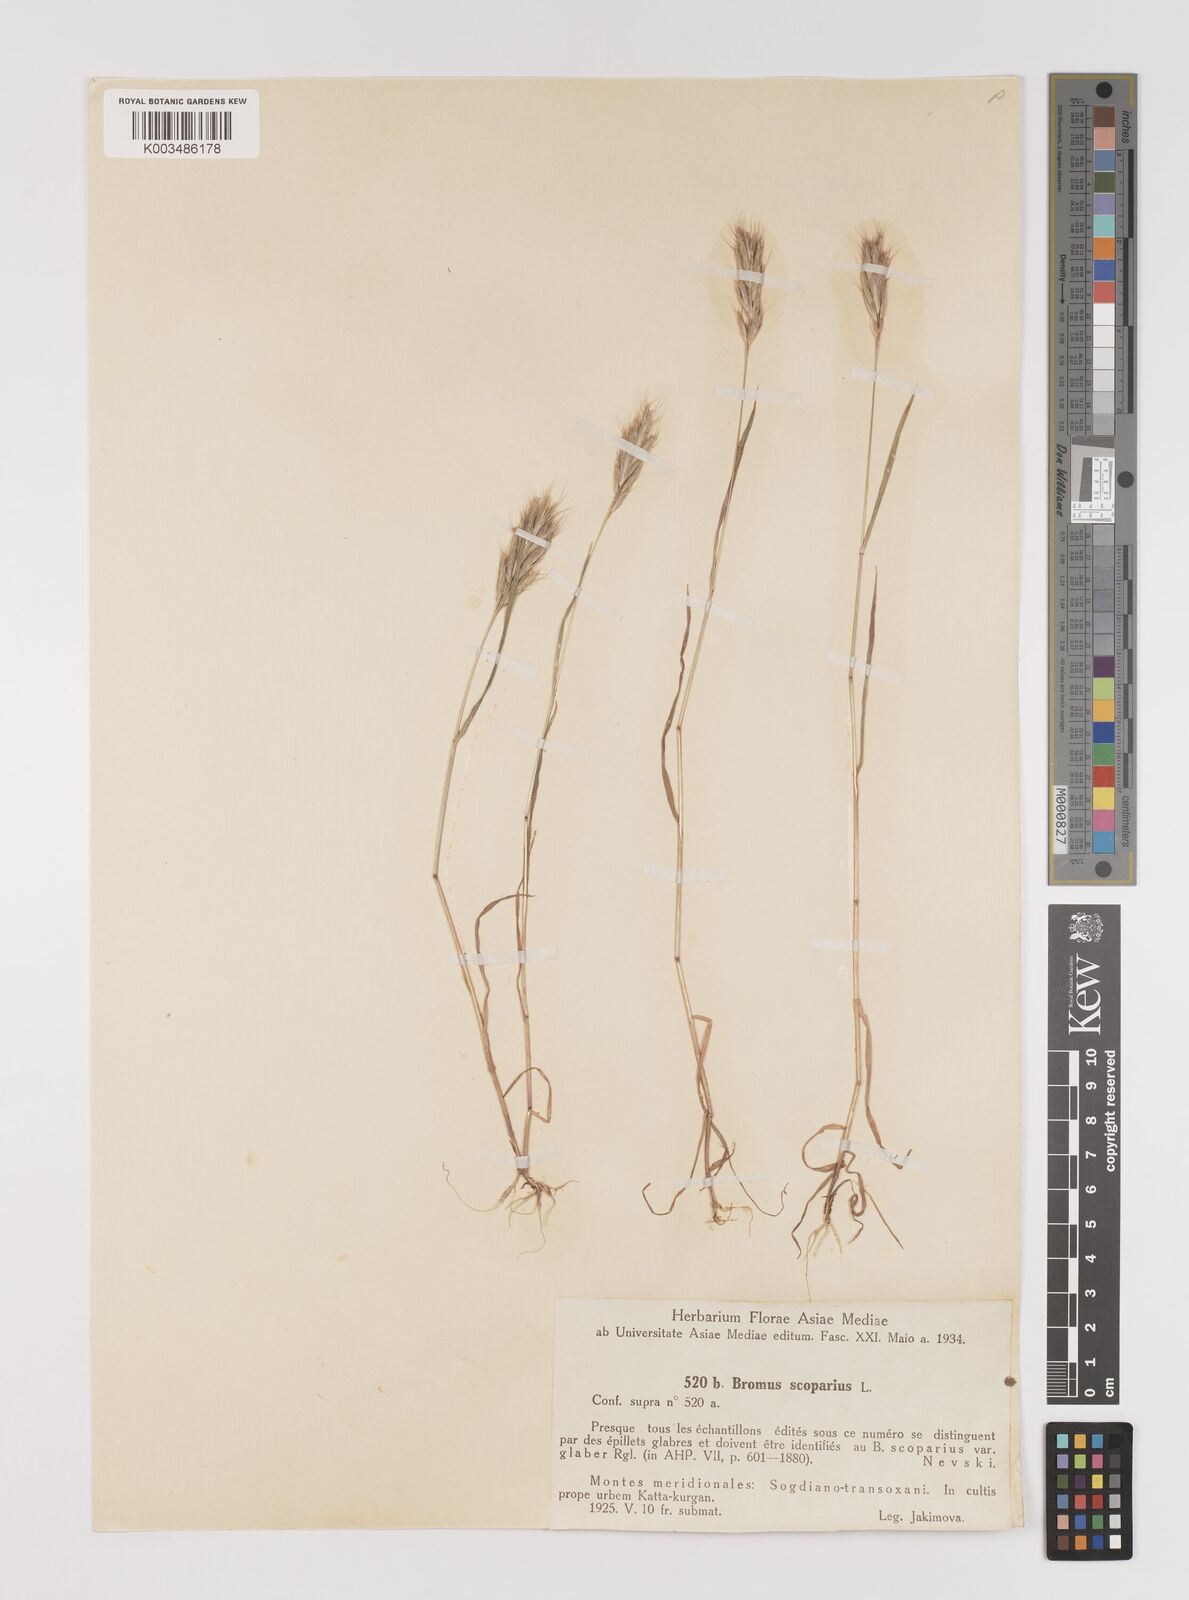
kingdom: Plantae
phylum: Tracheophyta
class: Liliopsida
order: Poales
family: Poaceae
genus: Bromus
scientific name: Bromus scoparius
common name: Broom brome
